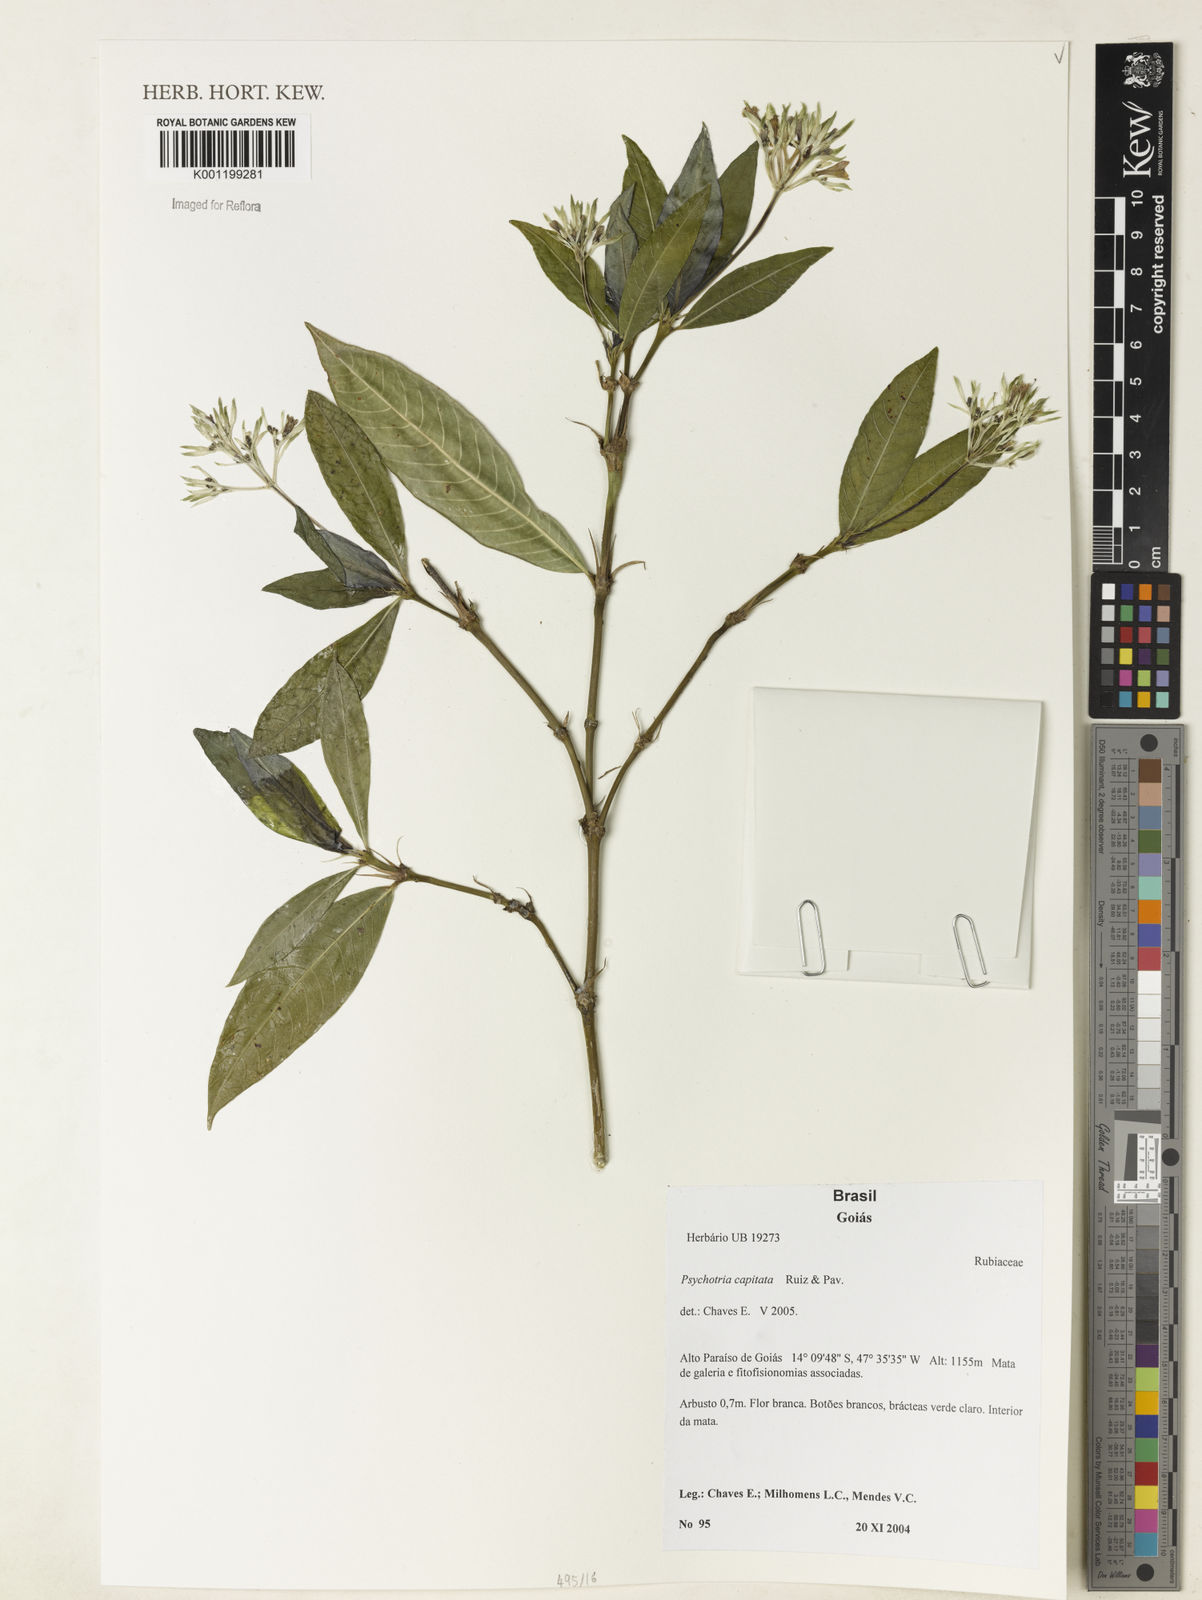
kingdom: Plantae
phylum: Tracheophyta
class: Magnoliopsida
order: Gentianales
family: Rubiaceae
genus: Palicourea
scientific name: Palicourea violacea
